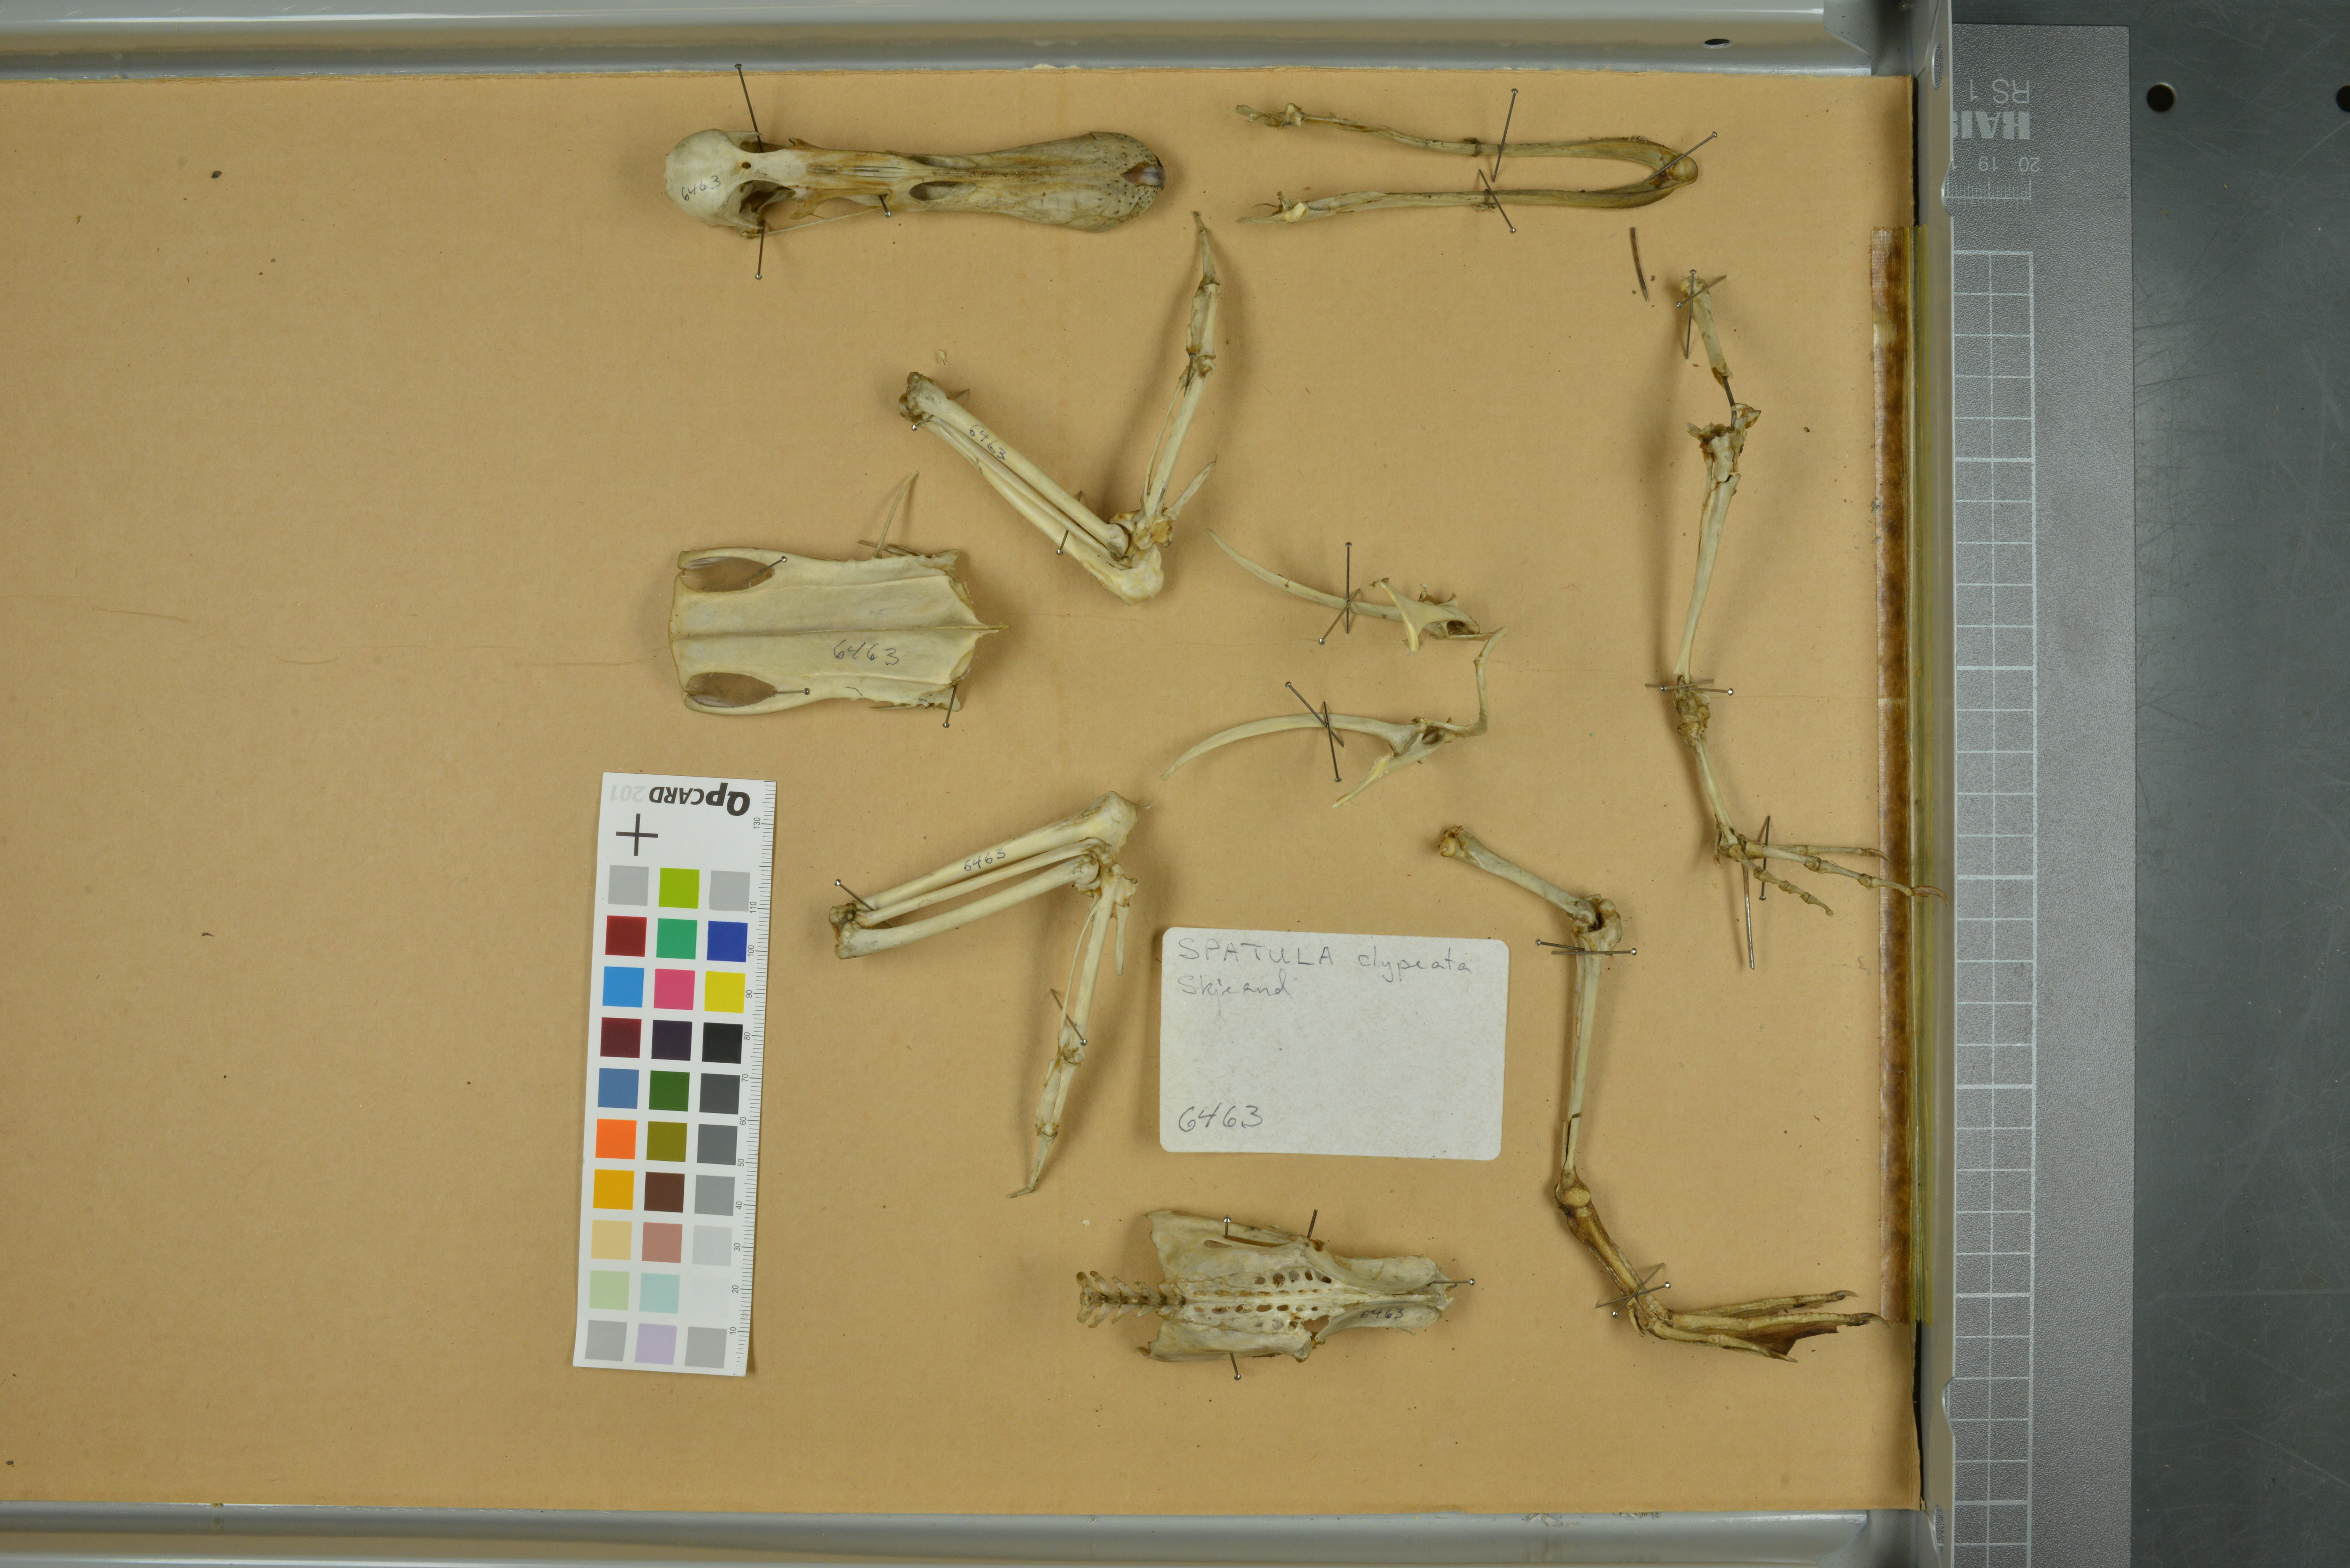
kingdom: Animalia
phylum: Chordata
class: Aves
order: Anseriformes
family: Anatidae
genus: Spatula
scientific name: Spatula clypeata
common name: Northern shoveler
